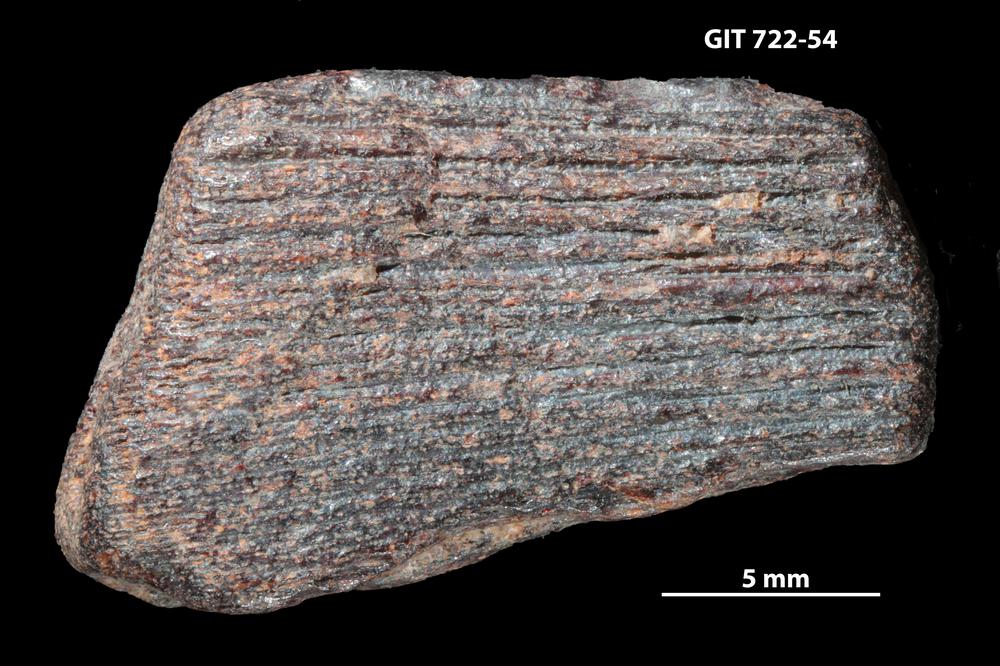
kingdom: Animalia
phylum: Chordata
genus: Devononchus
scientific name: Devononchus concinnus
